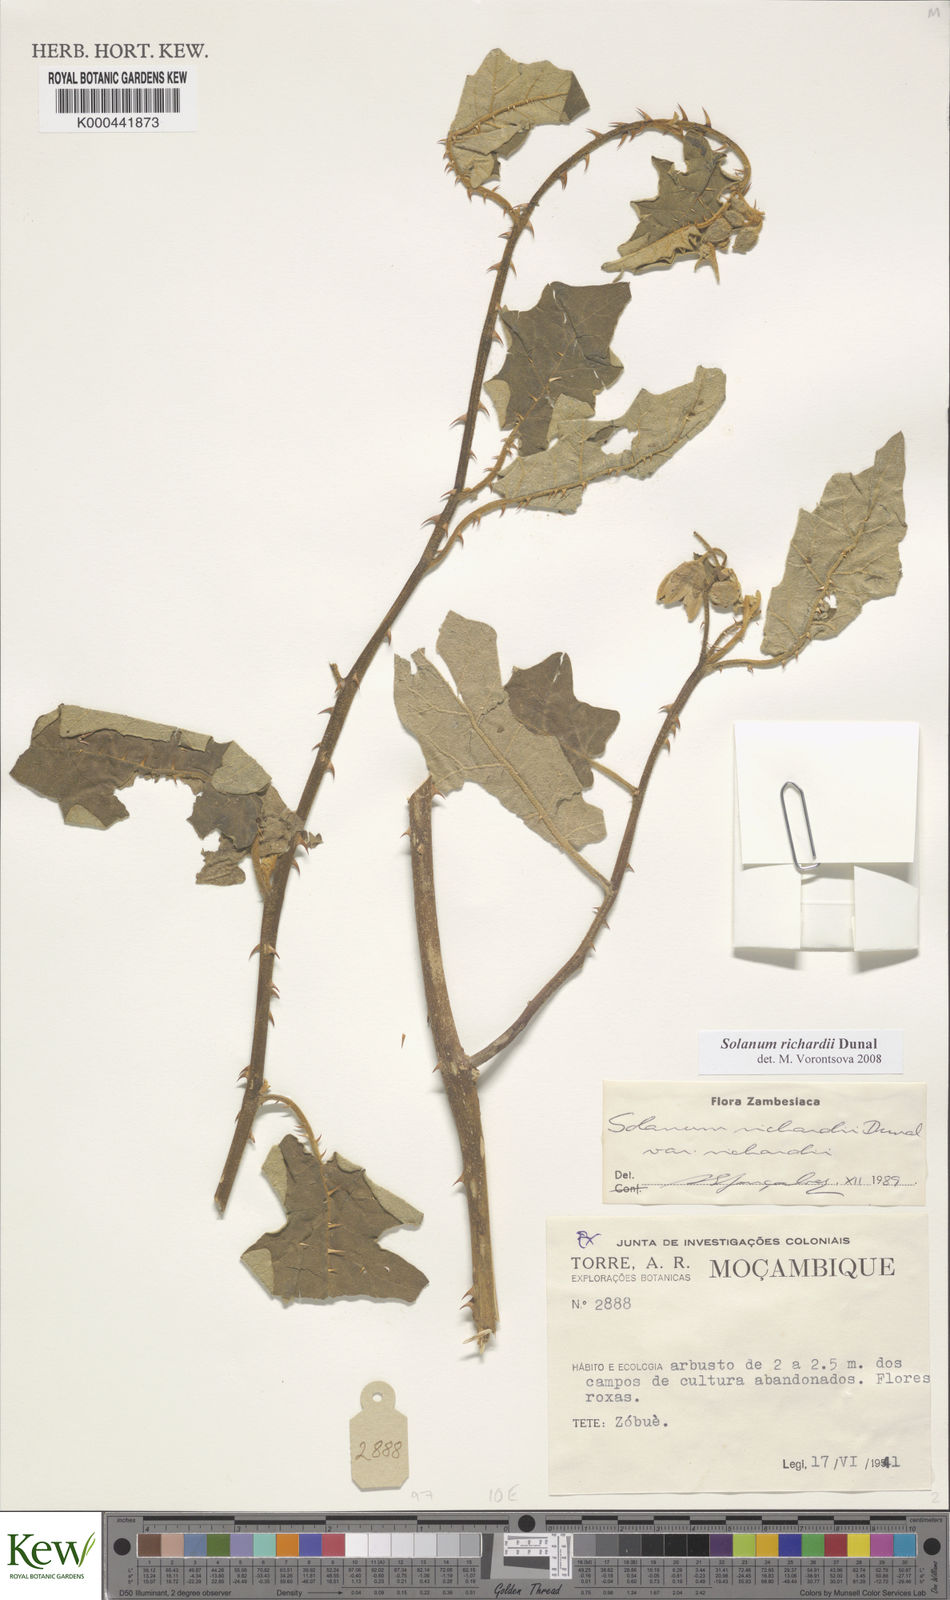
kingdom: Plantae
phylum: Tracheophyta
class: Magnoliopsida
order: Solanales
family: Solanaceae
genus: Solanum
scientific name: Solanum richardii
